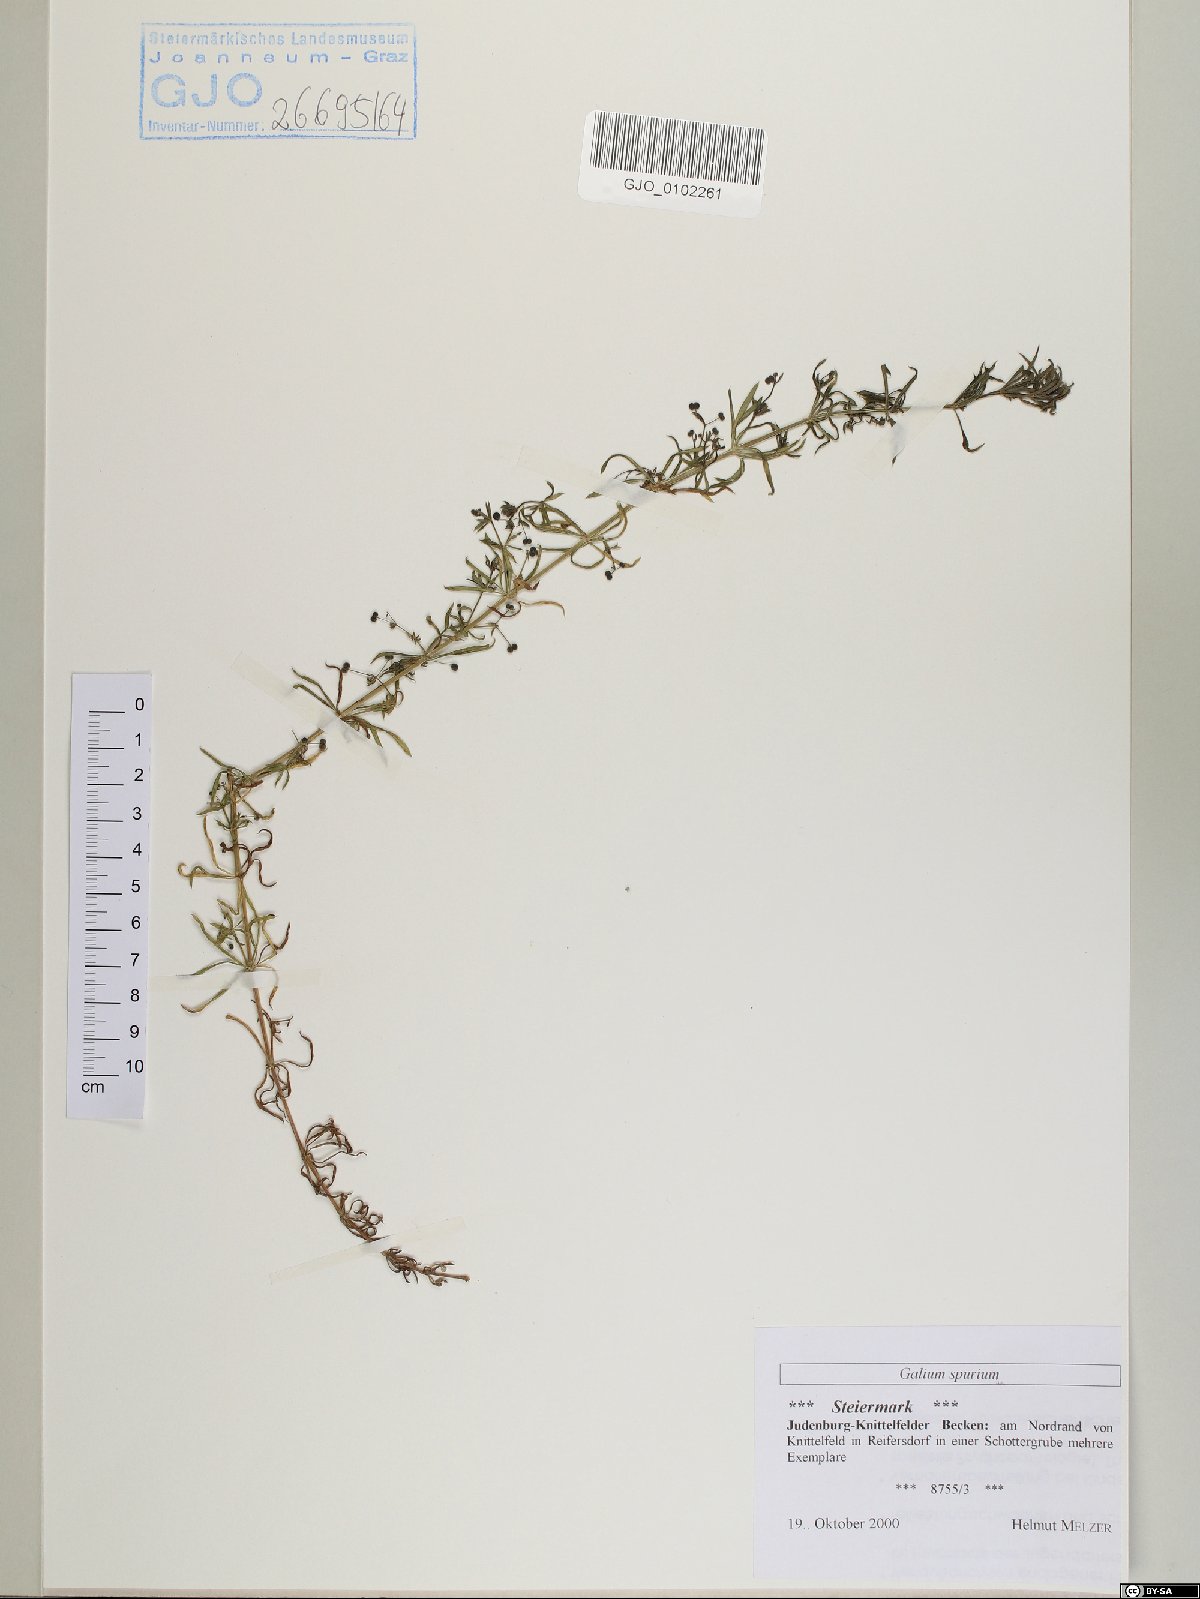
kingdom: Plantae
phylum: Tracheophyta
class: Magnoliopsida
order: Gentianales
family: Rubiaceae
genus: Galium
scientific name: Galium spurium
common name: False cleavers
